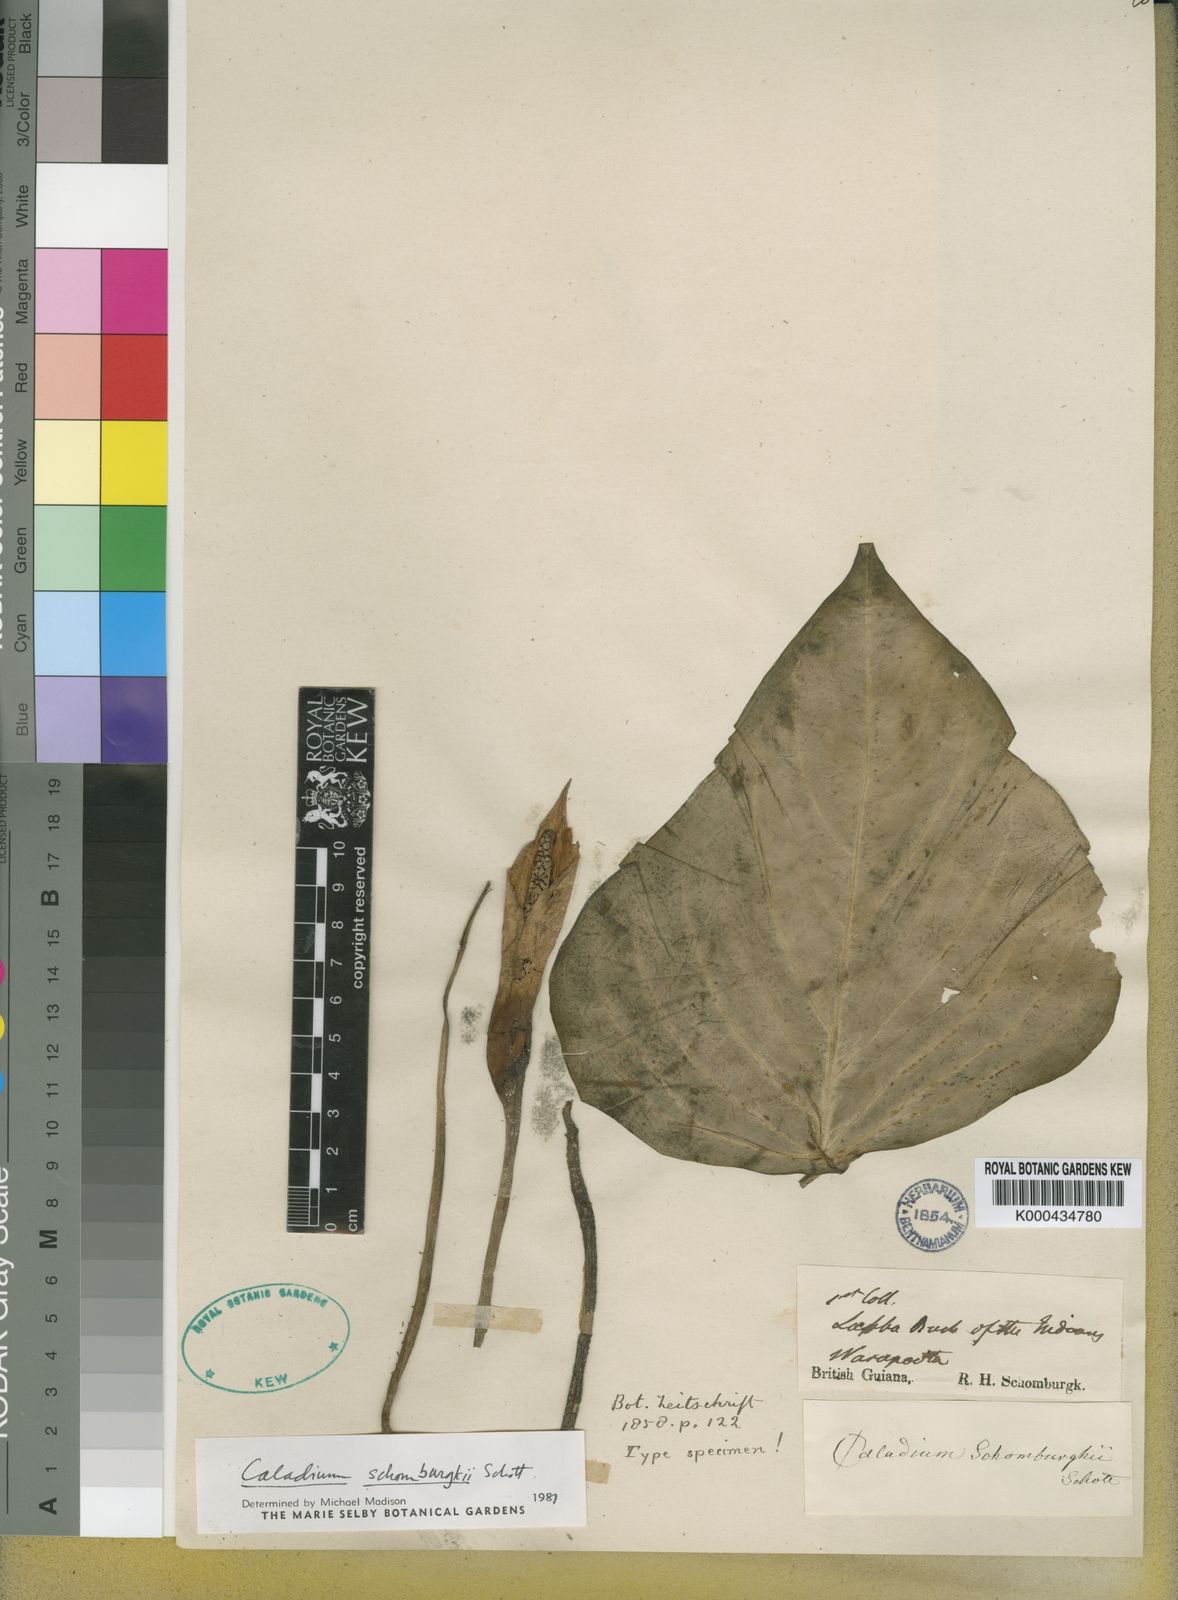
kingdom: Plantae
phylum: Tracheophyta
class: Liliopsida
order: Alismatales
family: Araceae
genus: Caladium
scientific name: Caladium schomburgkii
